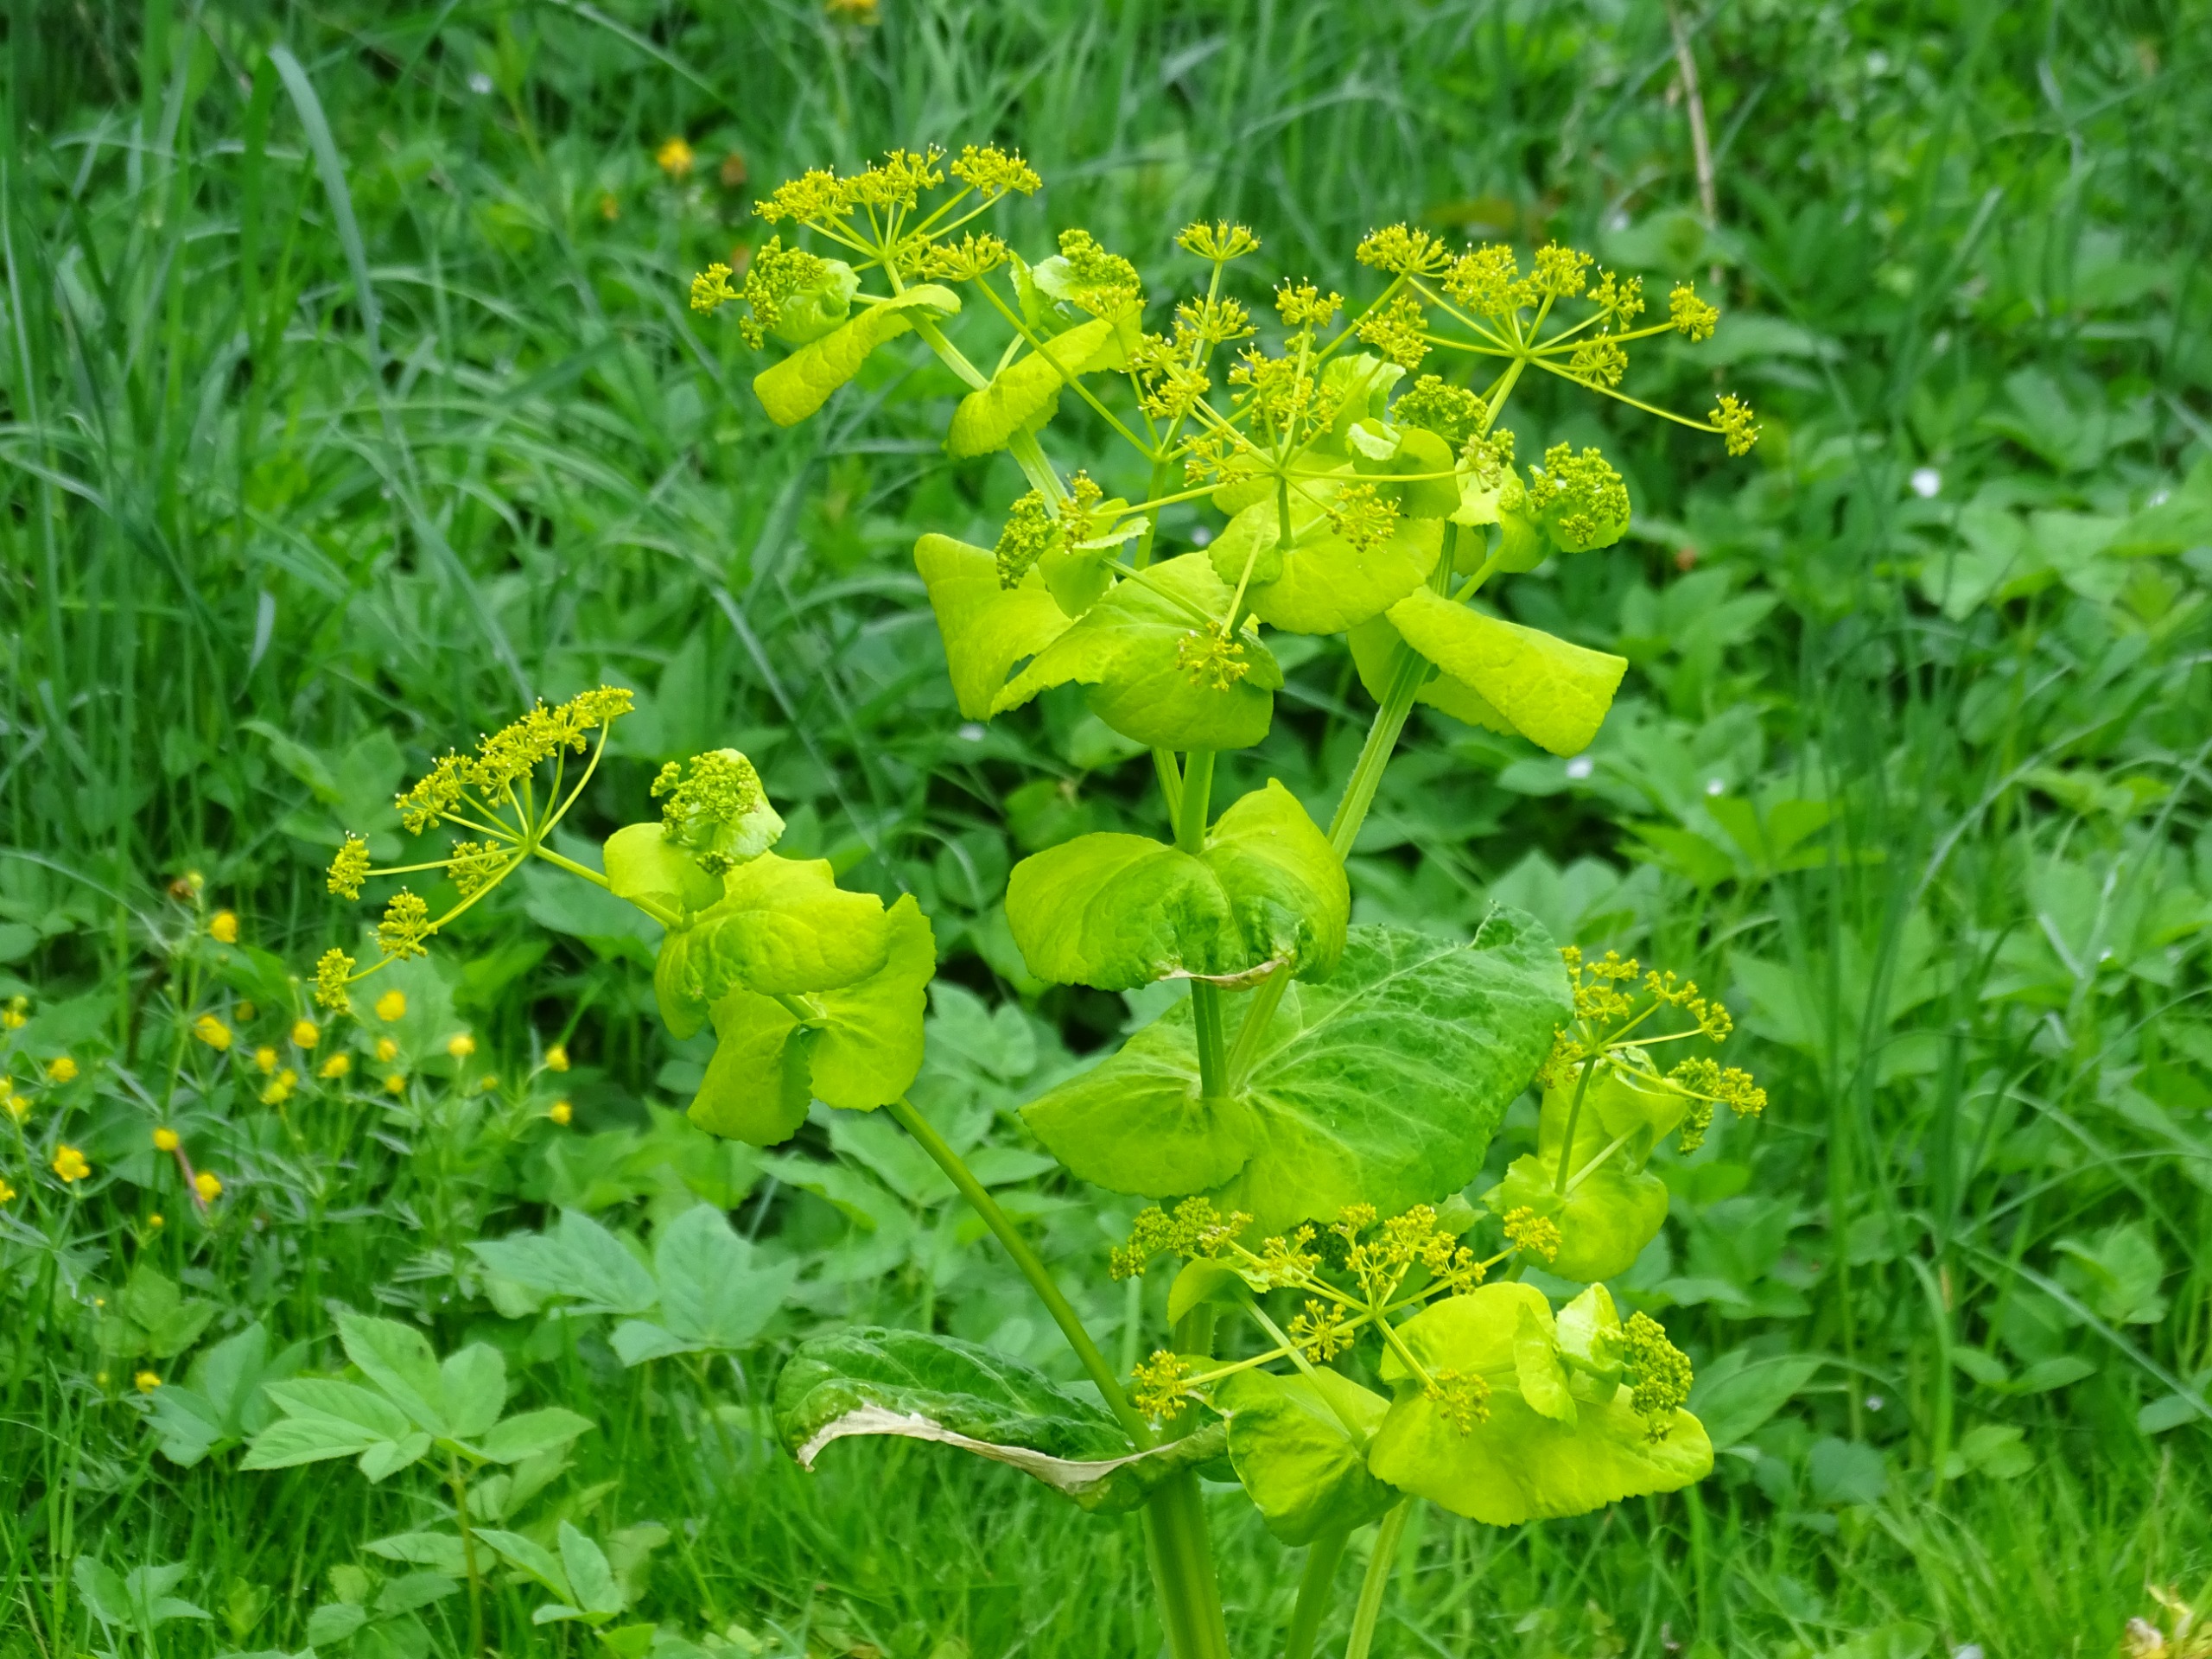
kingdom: Plantae
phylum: Tracheophyta
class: Magnoliopsida
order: Apiales
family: Apiaceae
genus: Smyrnium
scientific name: Smyrnium perfoliatum
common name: Lundgylden
